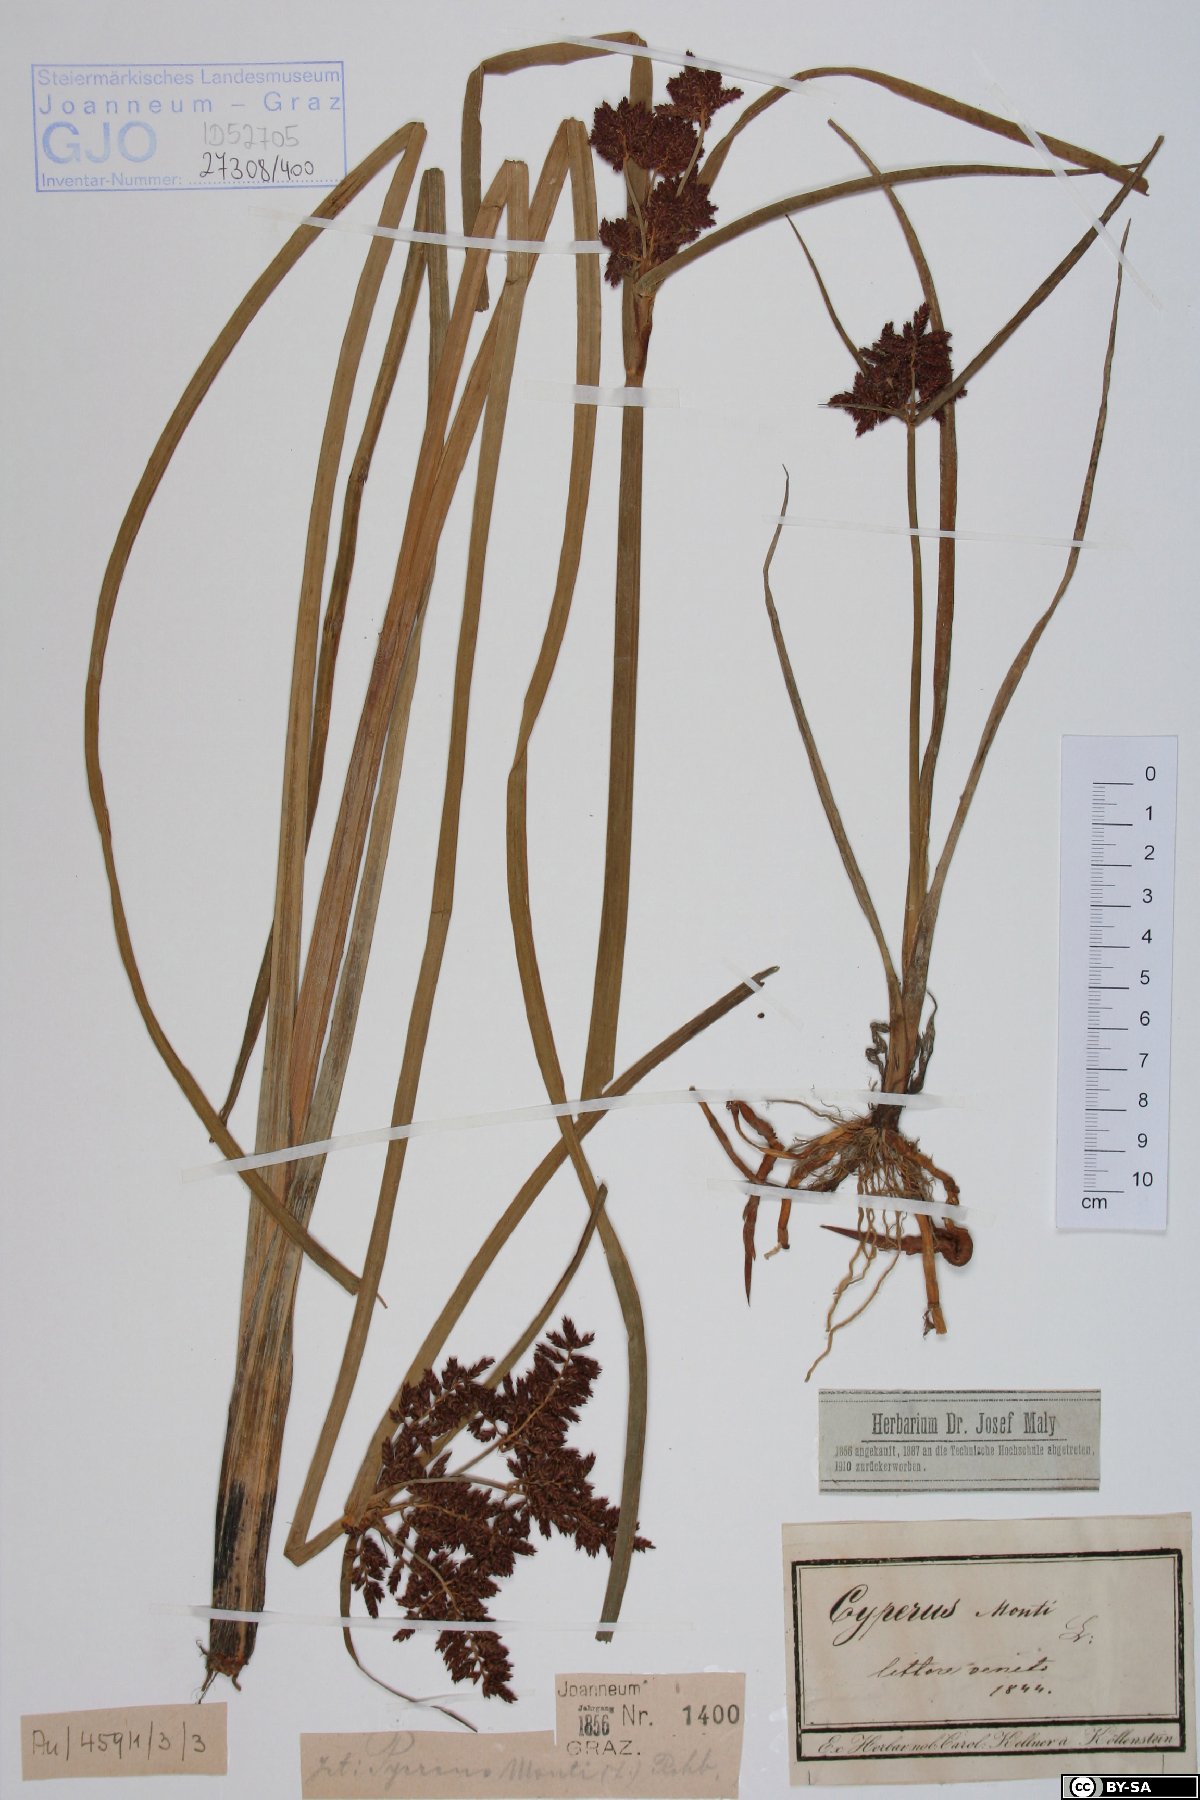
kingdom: Plantae
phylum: Tracheophyta
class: Liliopsida
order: Poales
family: Cyperaceae
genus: Cyperus
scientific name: Cyperus serotinus
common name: Tidalmarsh flatsedge
